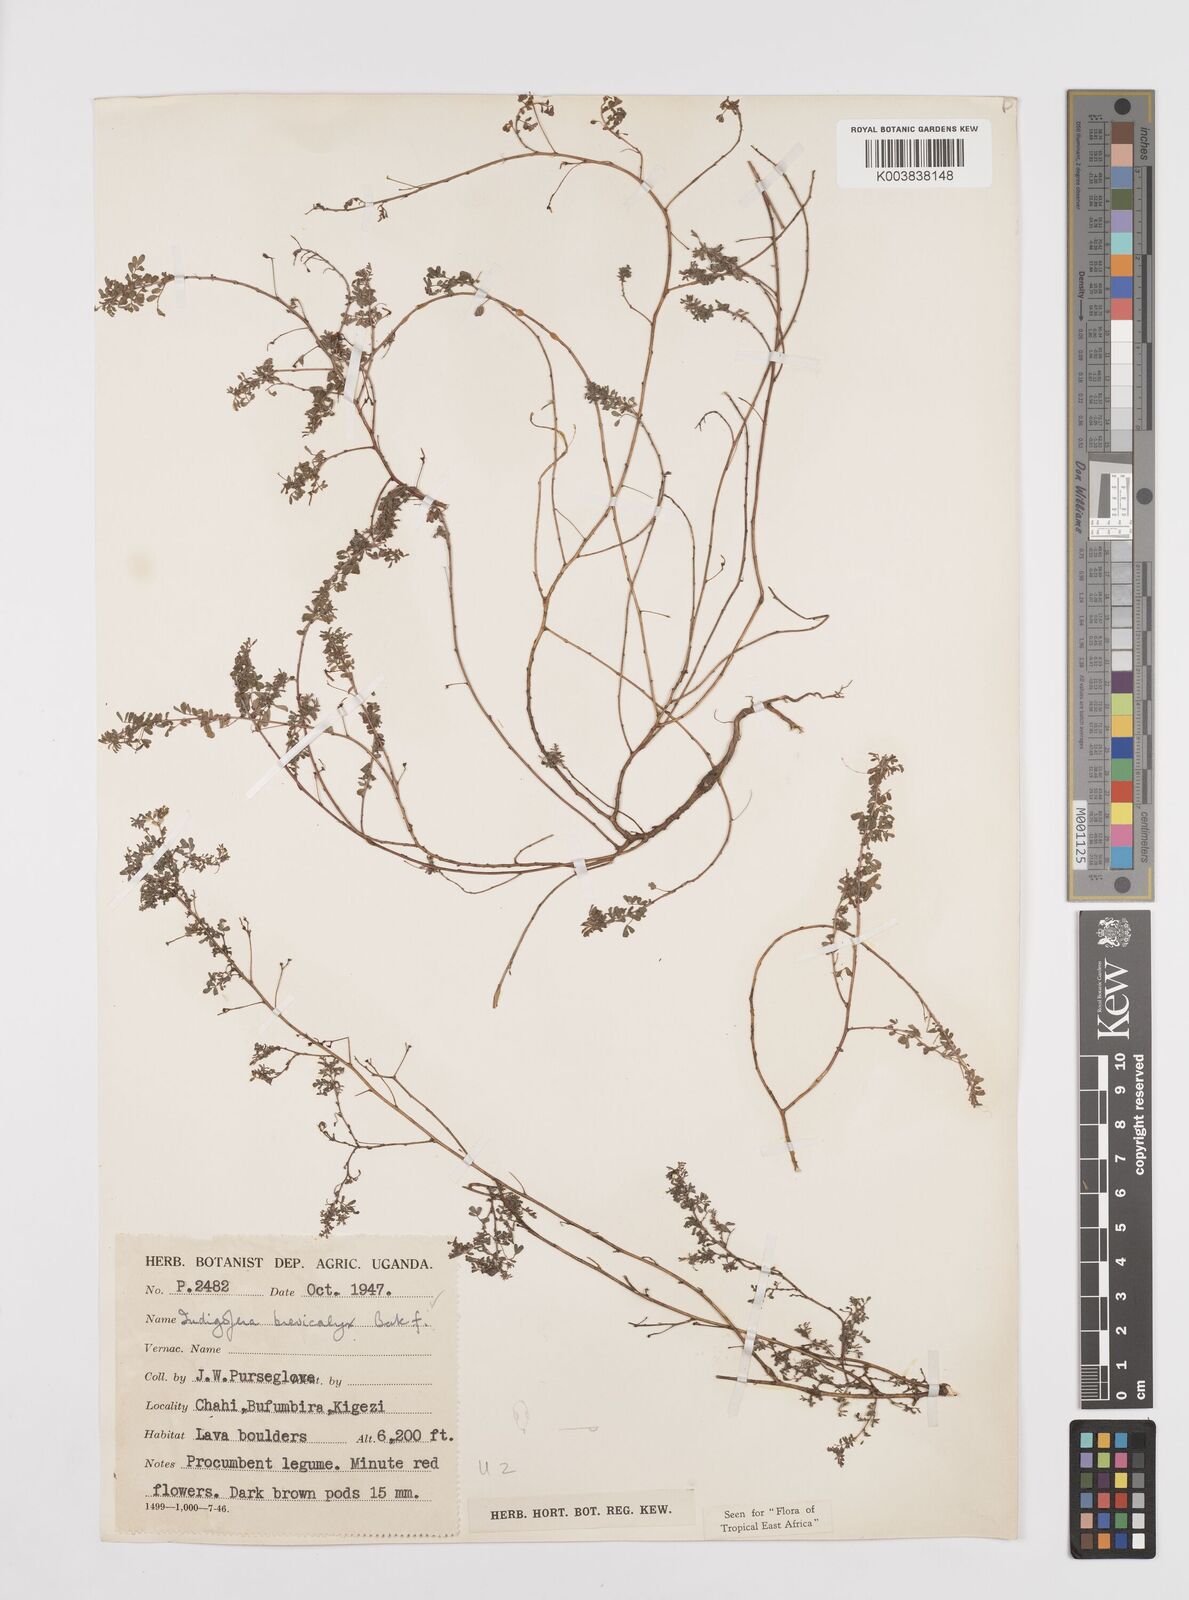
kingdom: Plantae
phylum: Tracheophyta
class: Magnoliopsida
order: Fabales
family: Fabaceae
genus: Indigofera
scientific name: Indigofera brevicalyx
